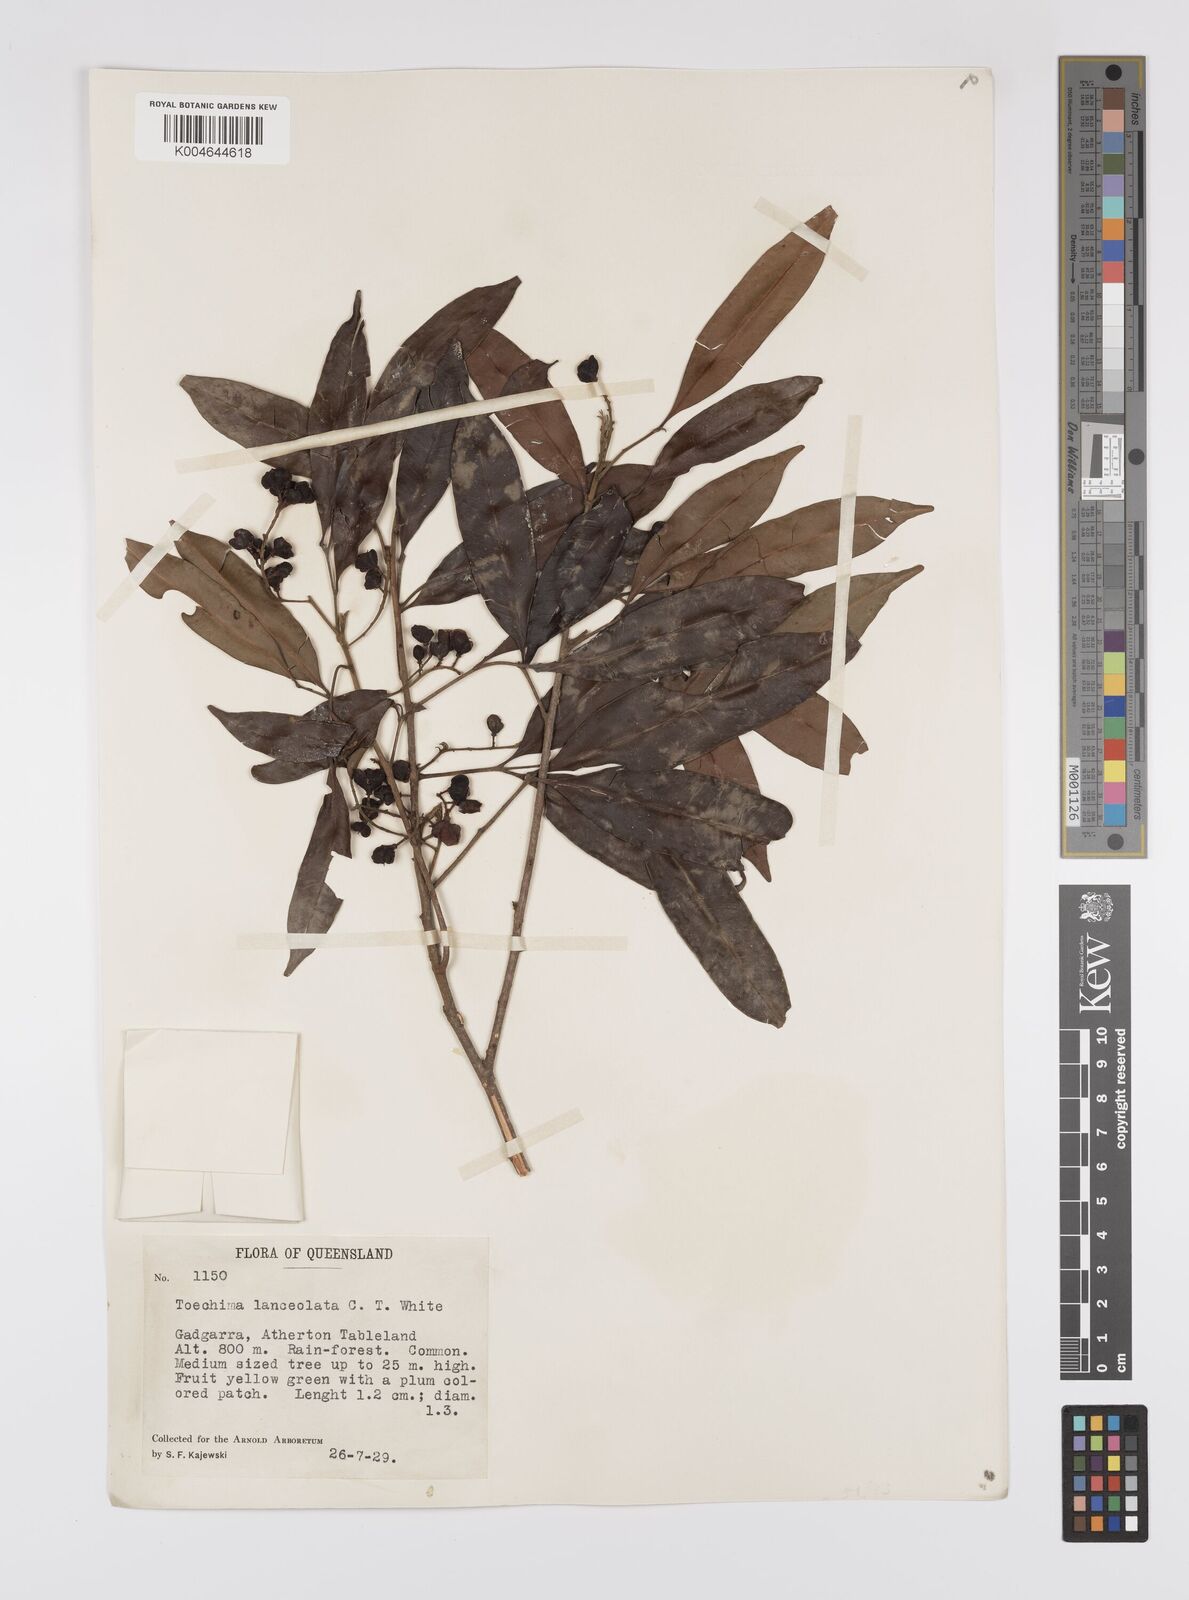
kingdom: Plantae
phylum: Tracheophyta
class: Magnoliopsida
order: Sapindales
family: Sapindaceae
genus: Sarcotoechia
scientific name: Sarcotoechia lanceolata
